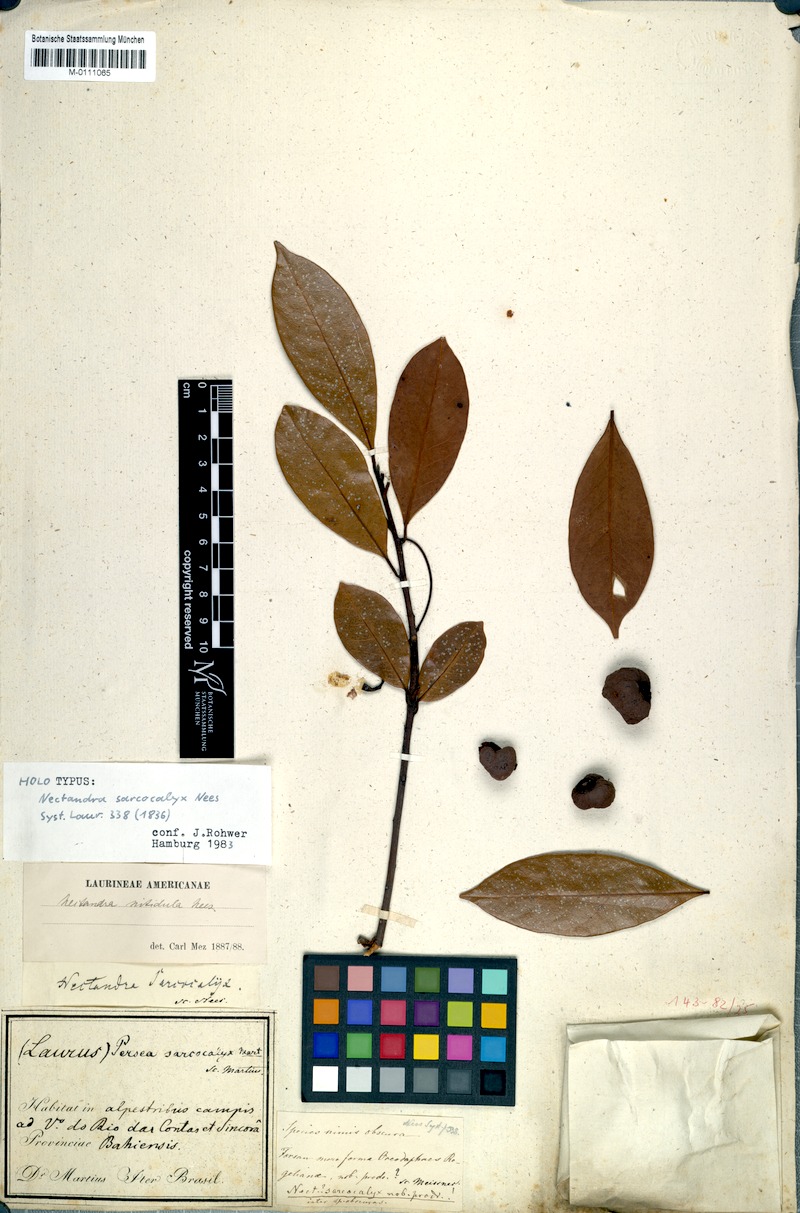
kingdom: Plantae
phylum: Tracheophyta
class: Magnoliopsida
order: Laurales
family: Lauraceae
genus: Nectandra
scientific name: Nectandra nitidula
